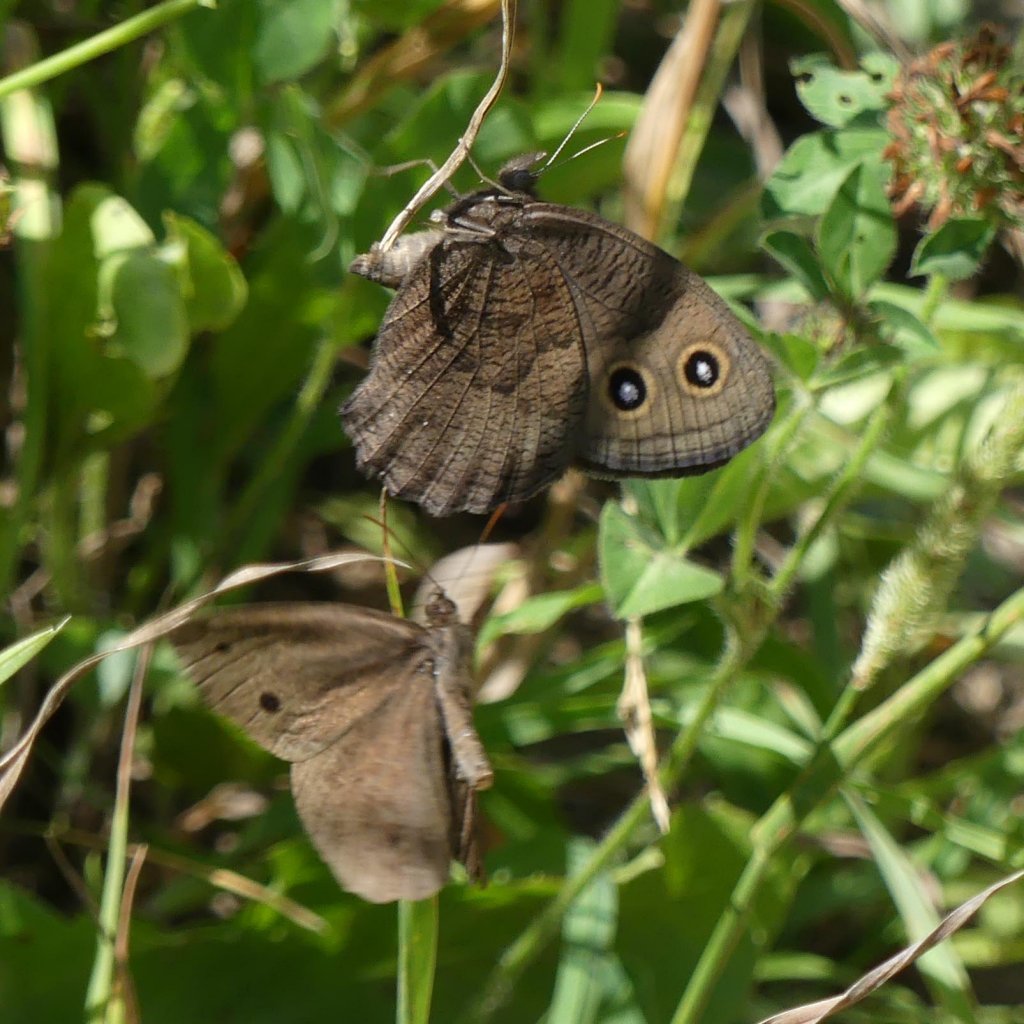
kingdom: Animalia
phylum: Arthropoda
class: Insecta
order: Lepidoptera
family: Nymphalidae
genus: Cercyonis
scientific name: Cercyonis pegala
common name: Common Wood-Nymph
